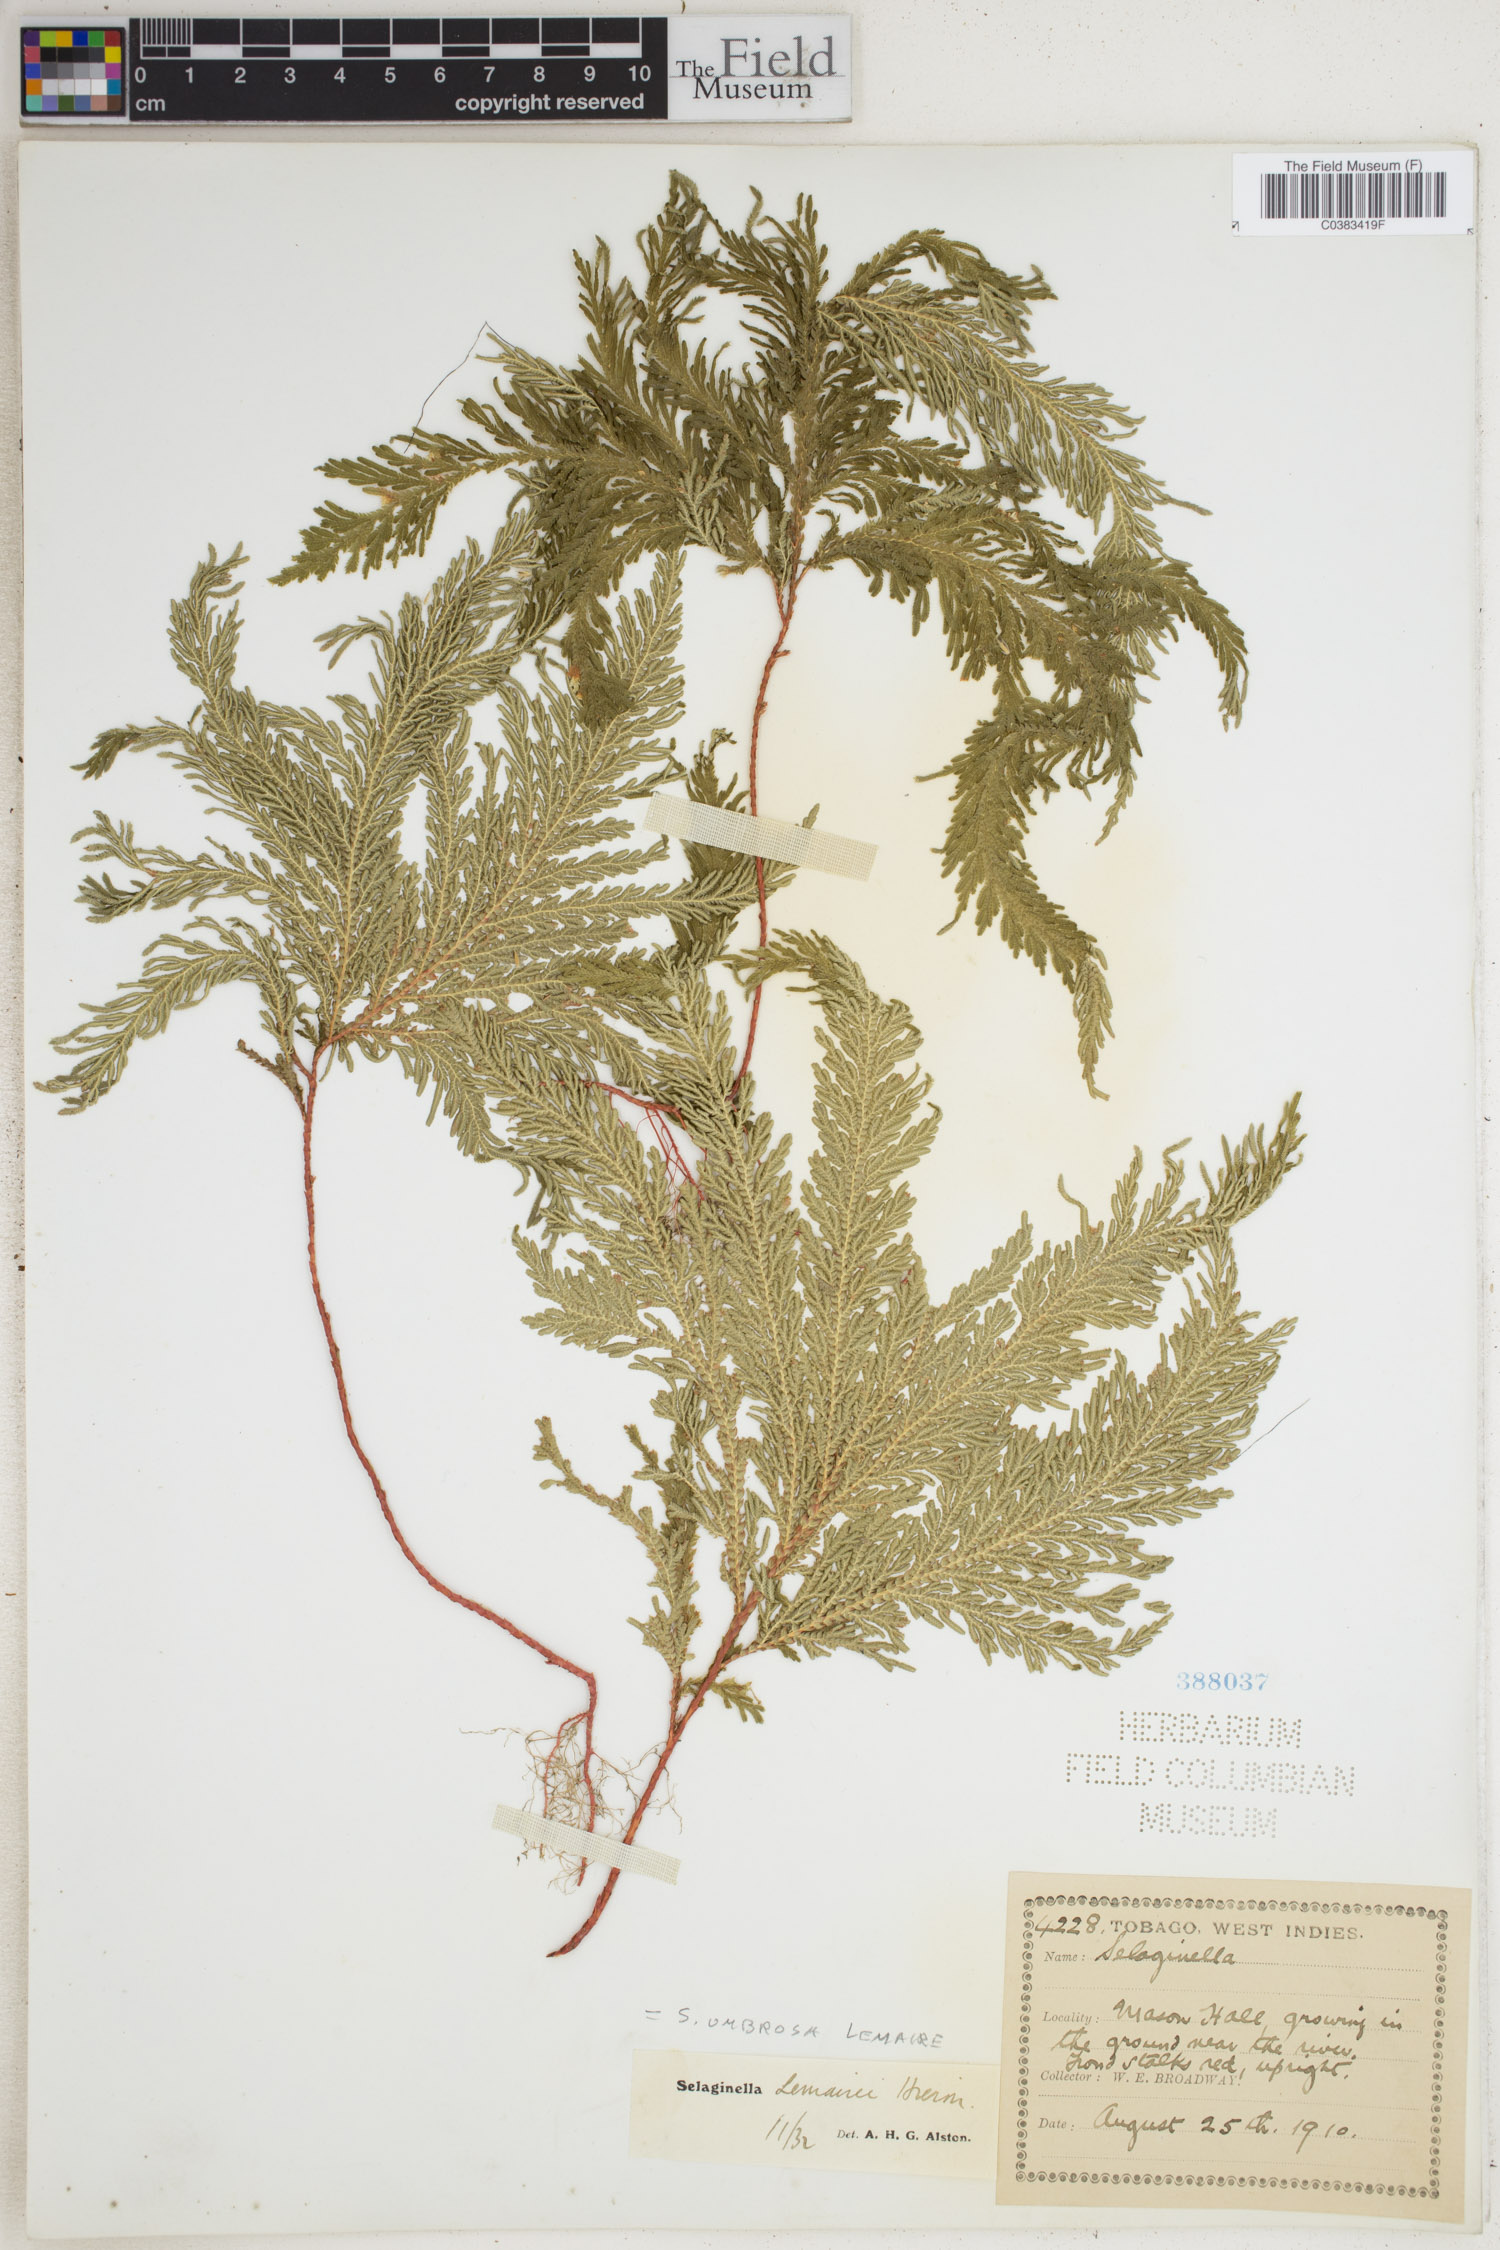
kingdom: Plantae
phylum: Tracheophyta
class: Lycopodiopsida
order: Selaginellales
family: Selaginellaceae
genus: Selaginella
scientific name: Selaginella umbrosa
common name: Spikemoss
